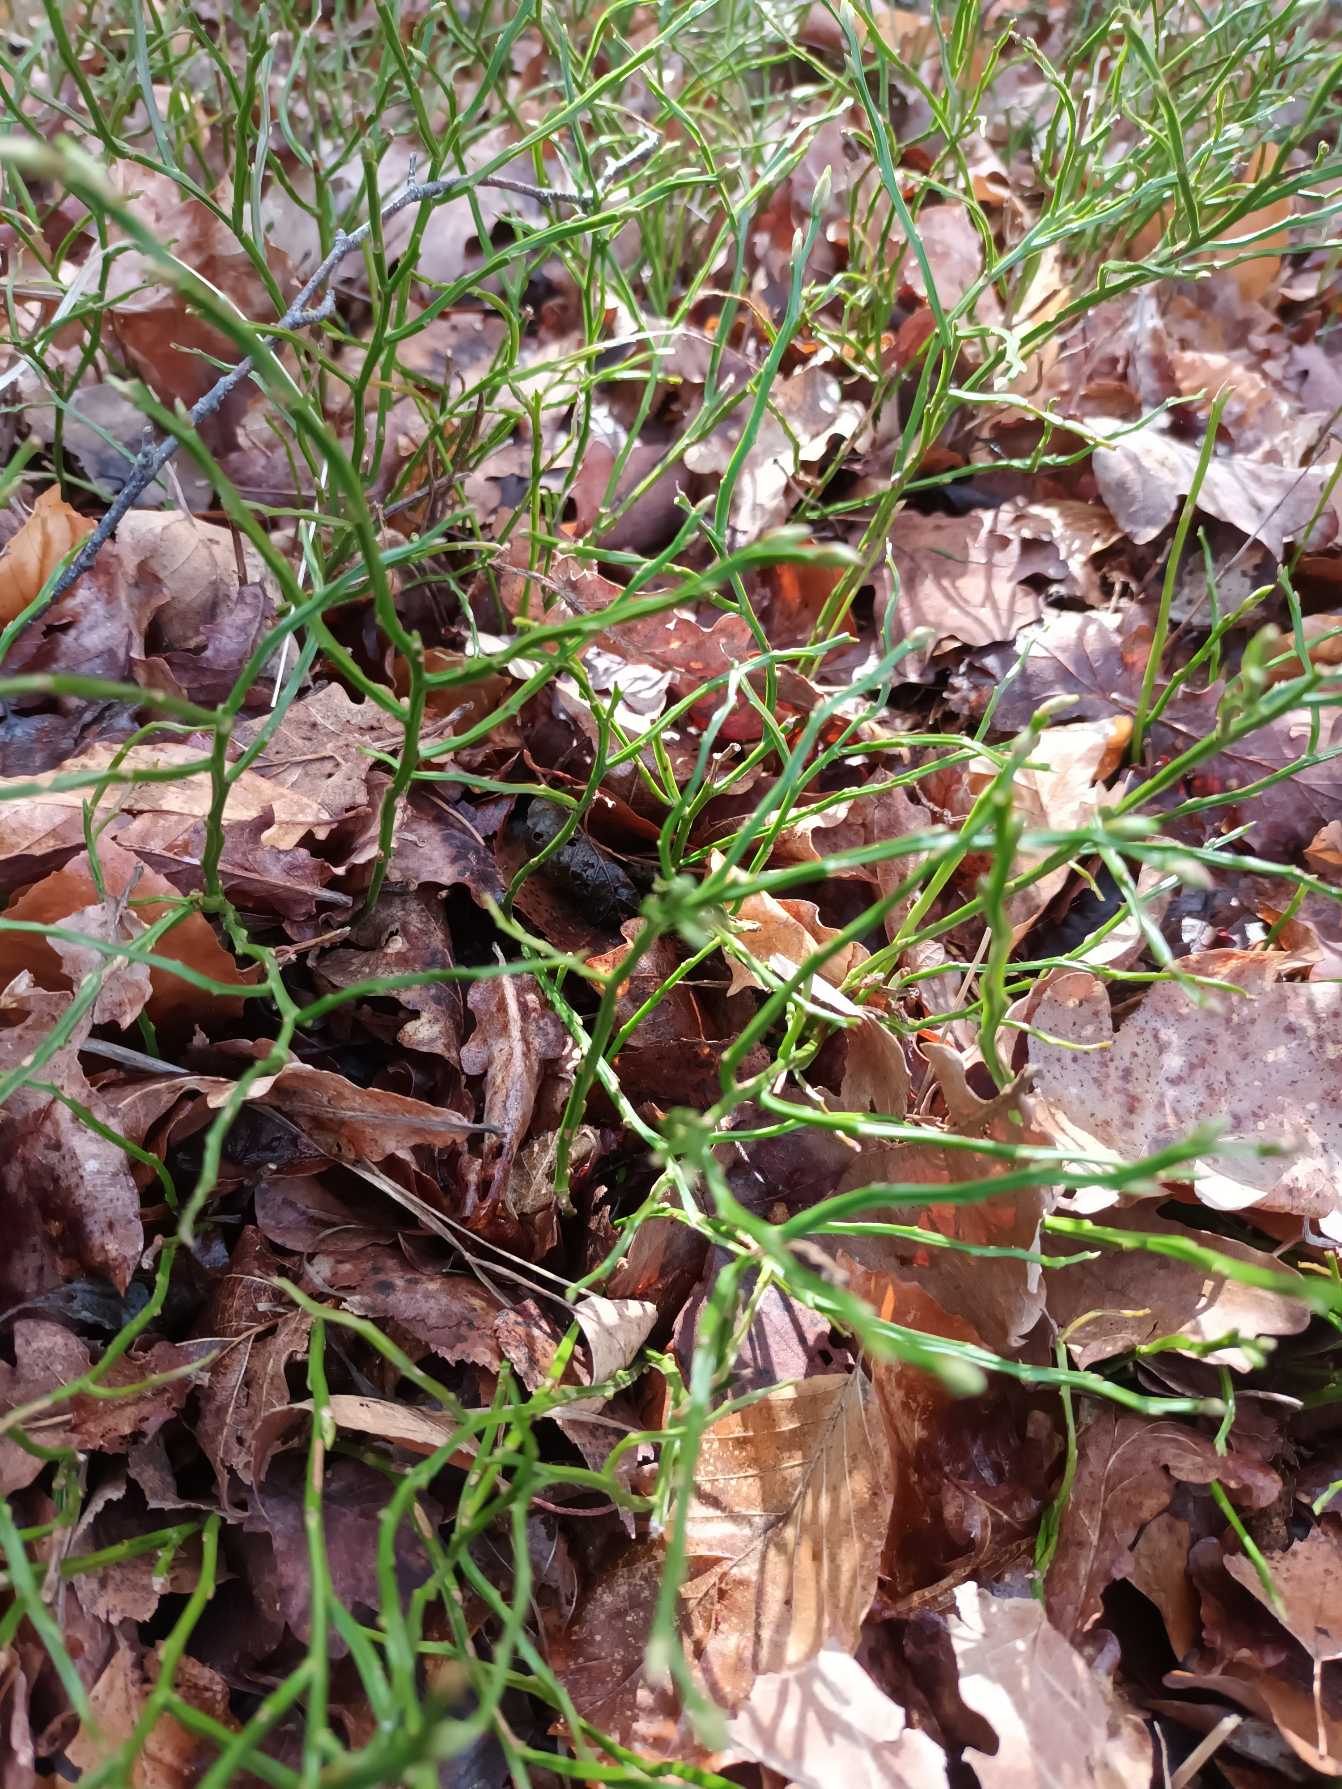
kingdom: Plantae
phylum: Tracheophyta
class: Magnoliopsida
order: Ericales
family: Ericaceae
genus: Vaccinium
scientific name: Vaccinium myrtillus
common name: Blåbær
